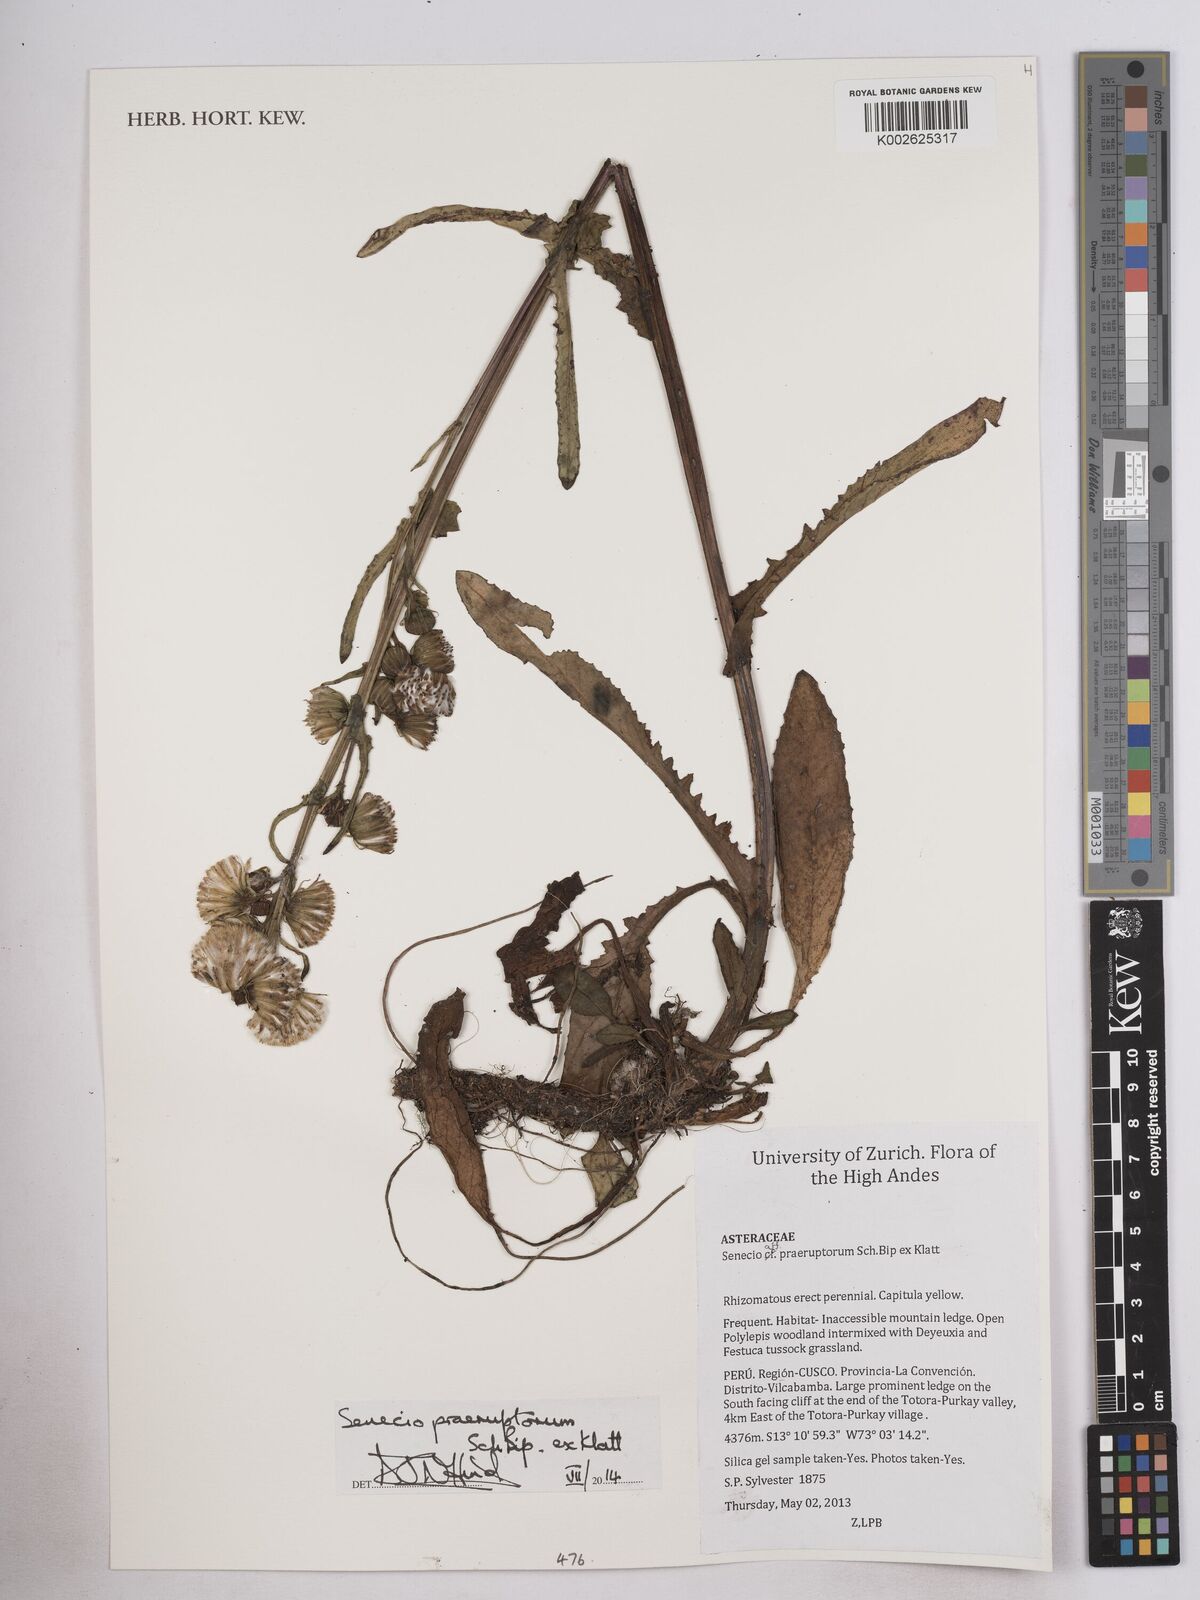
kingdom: Plantae
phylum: Tracheophyta
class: Magnoliopsida
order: Asterales
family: Asteraceae
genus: Senecio
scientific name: Senecio praeruptorum
